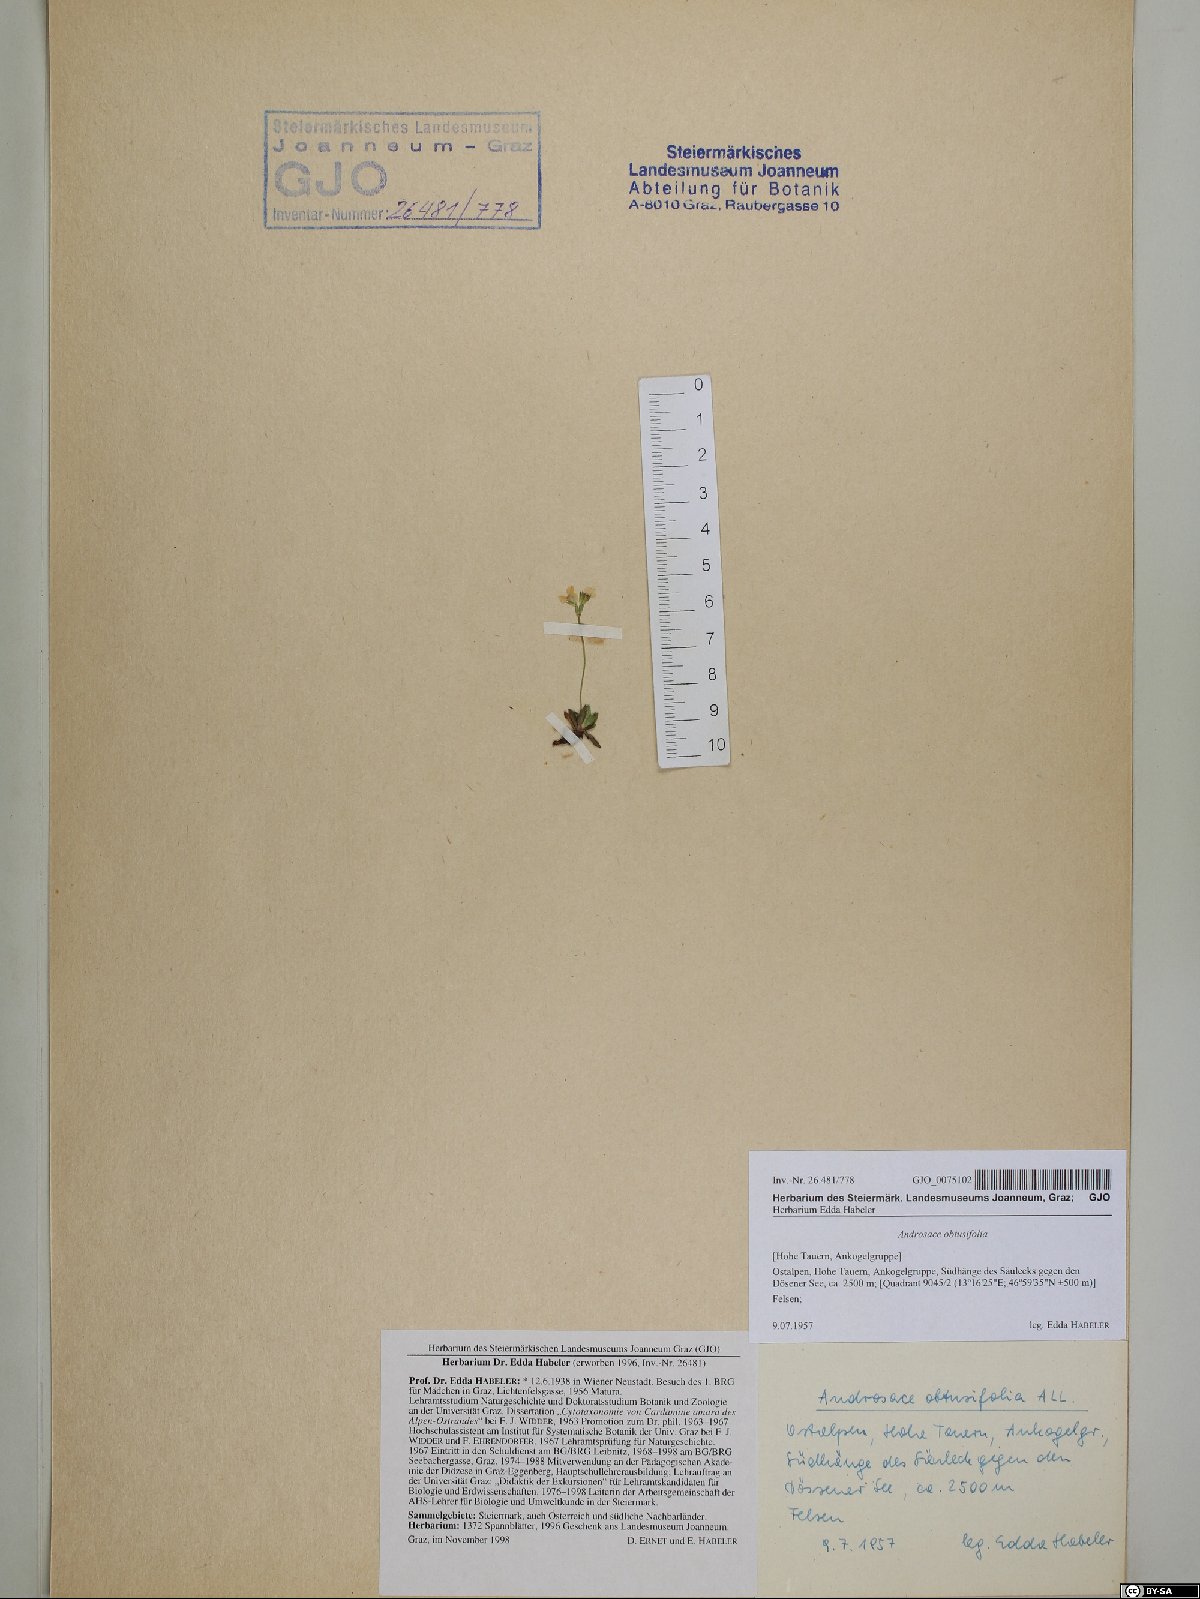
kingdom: Plantae
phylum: Tracheophyta
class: Magnoliopsida
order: Ericales
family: Primulaceae
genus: Androsace
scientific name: Androsace obtusifolia
